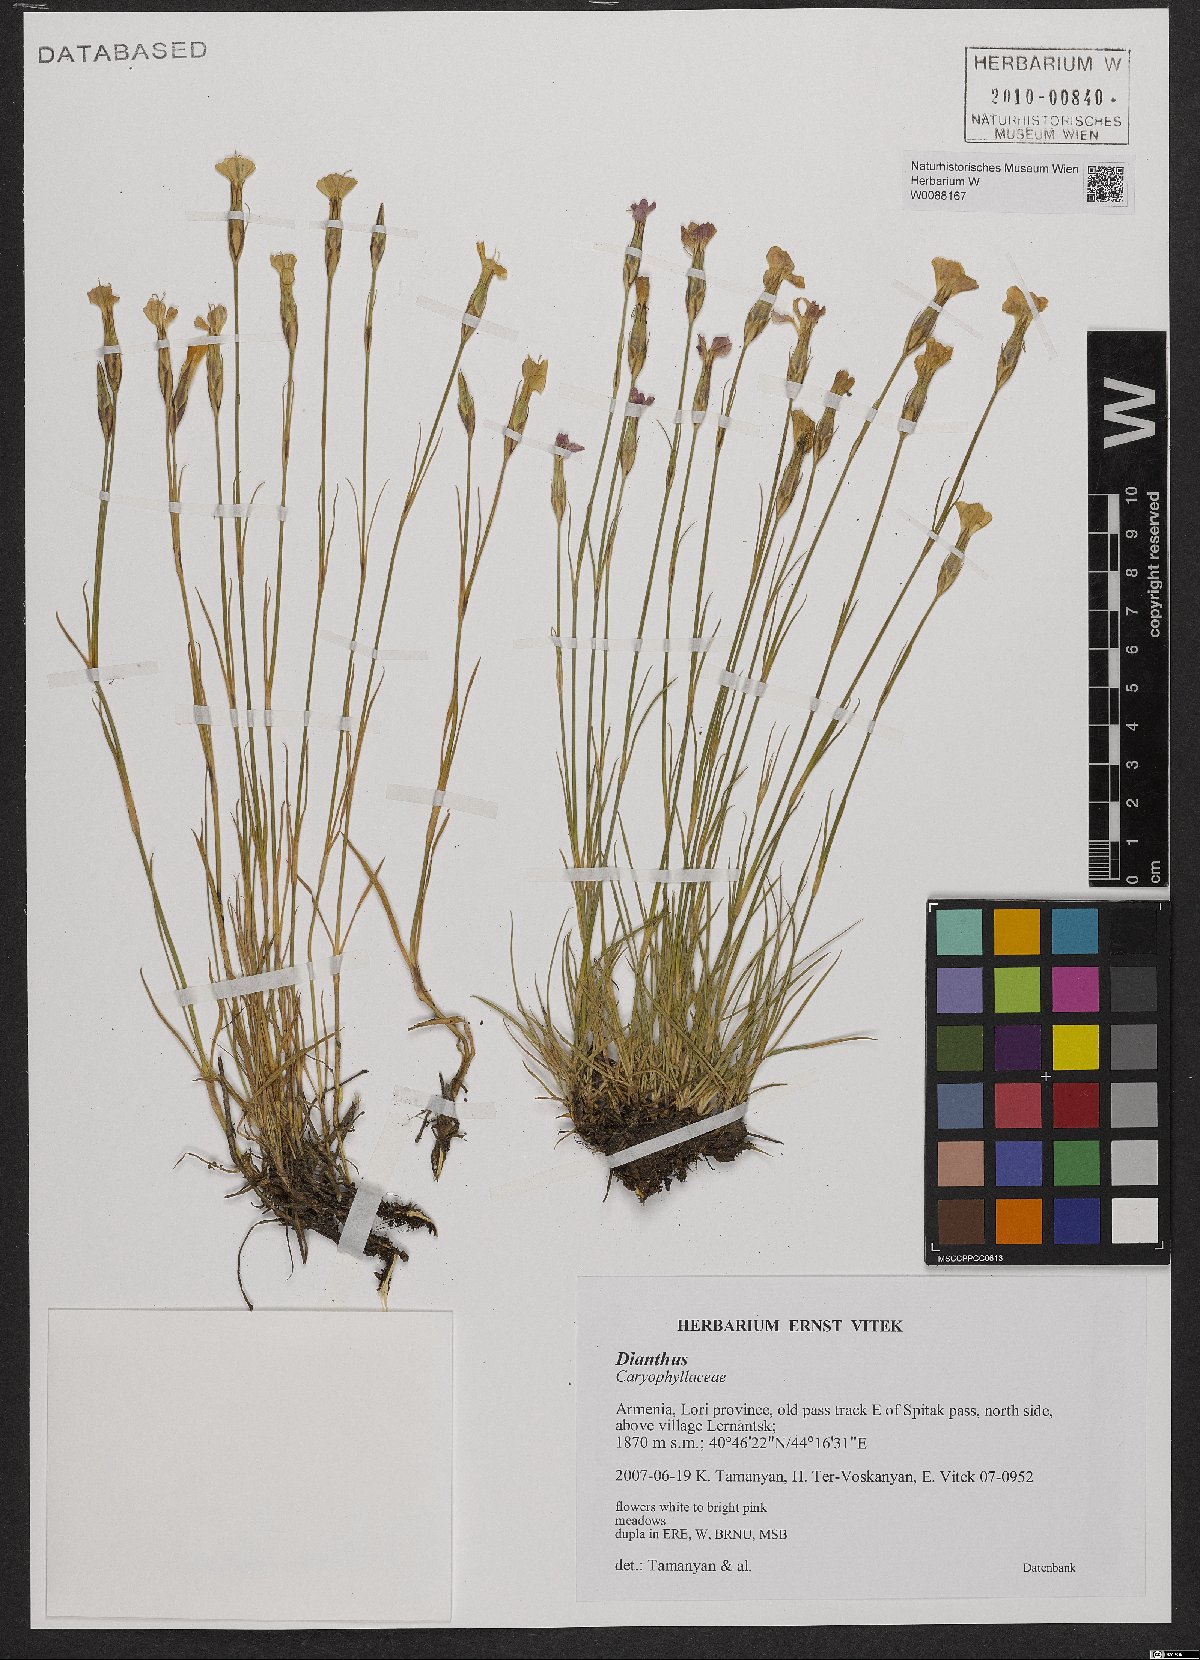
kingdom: Plantae
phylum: Tracheophyta
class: Magnoliopsida
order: Caryophyllales
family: Caryophyllaceae
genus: Dianthus
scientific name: Dianthus
